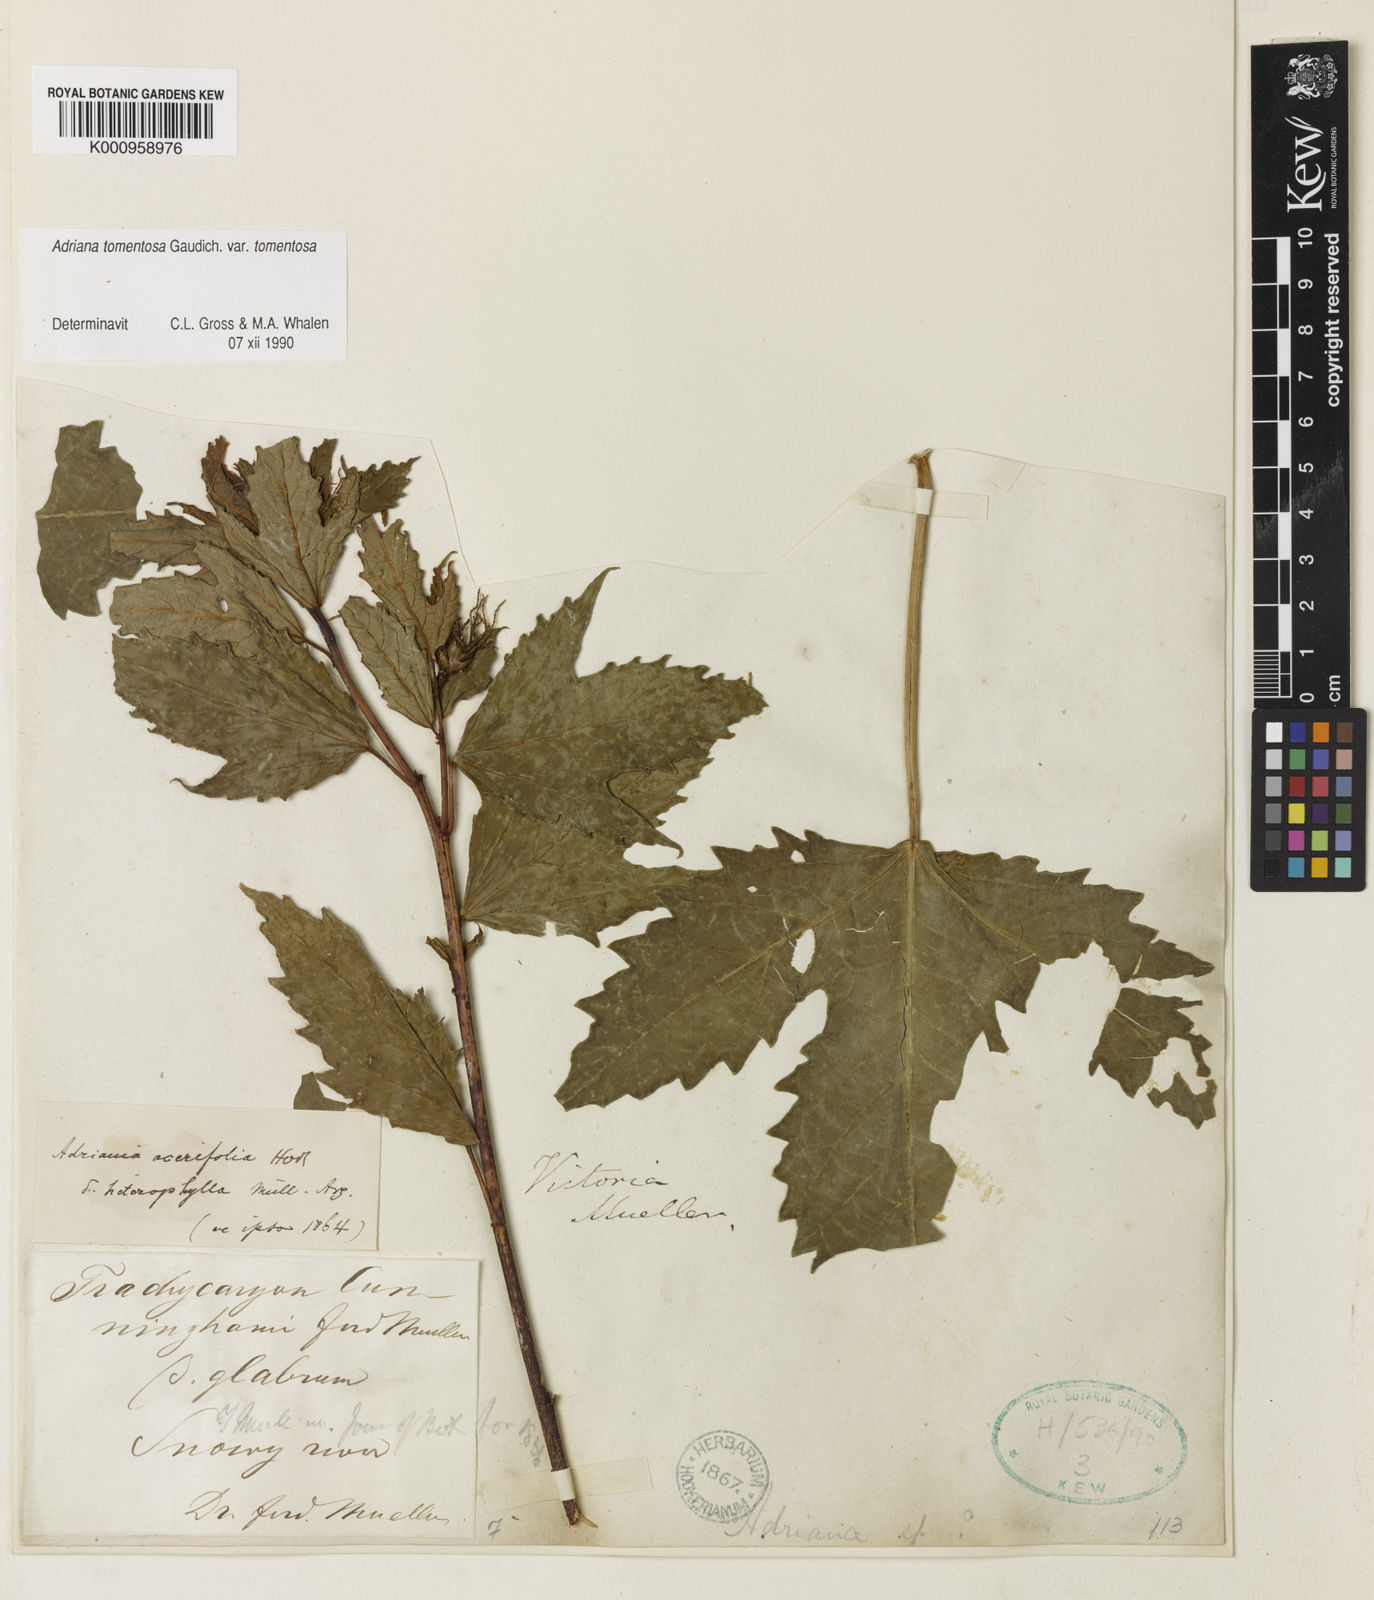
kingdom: Plantae
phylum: Tracheophyta
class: Magnoliopsida
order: Malpighiales
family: Euphorbiaceae
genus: Adriana
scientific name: Adriana tomentosa
